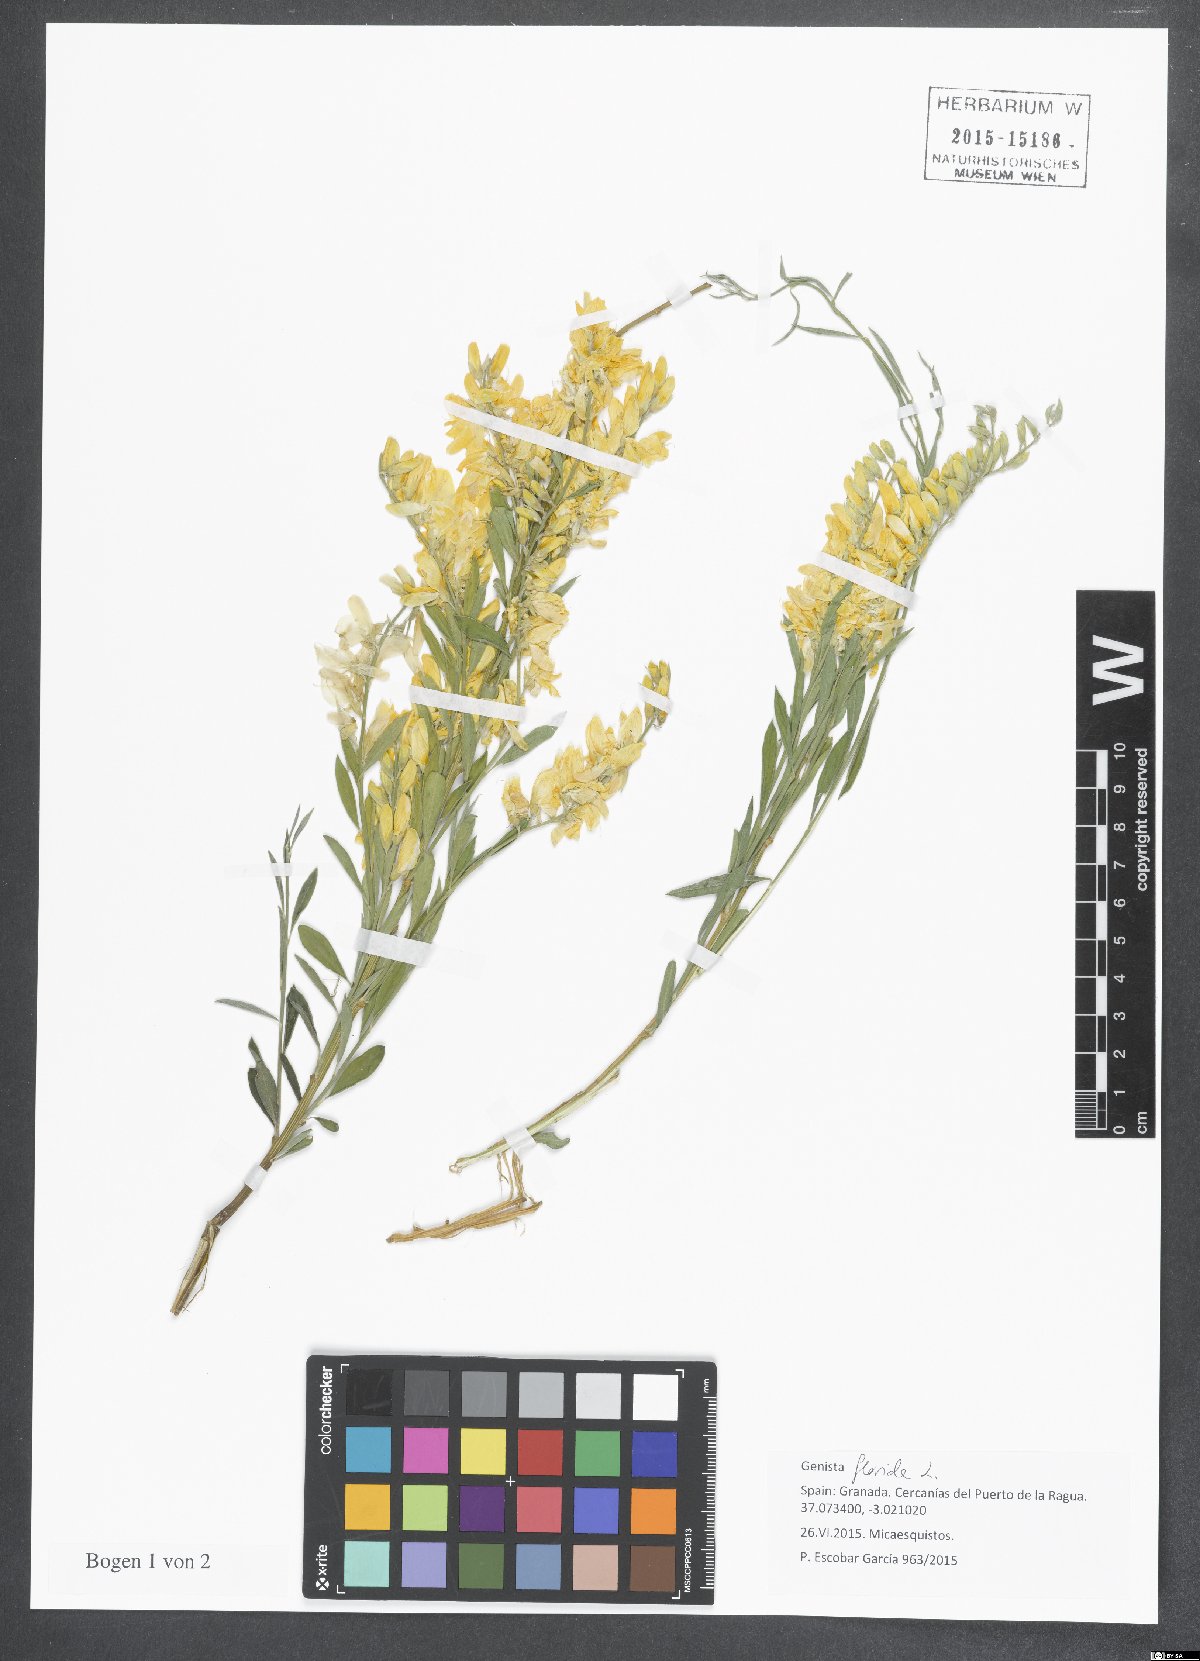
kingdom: Plantae
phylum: Tracheophyta
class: Magnoliopsida
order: Fabales
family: Fabaceae
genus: Genista
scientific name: Genista florida
